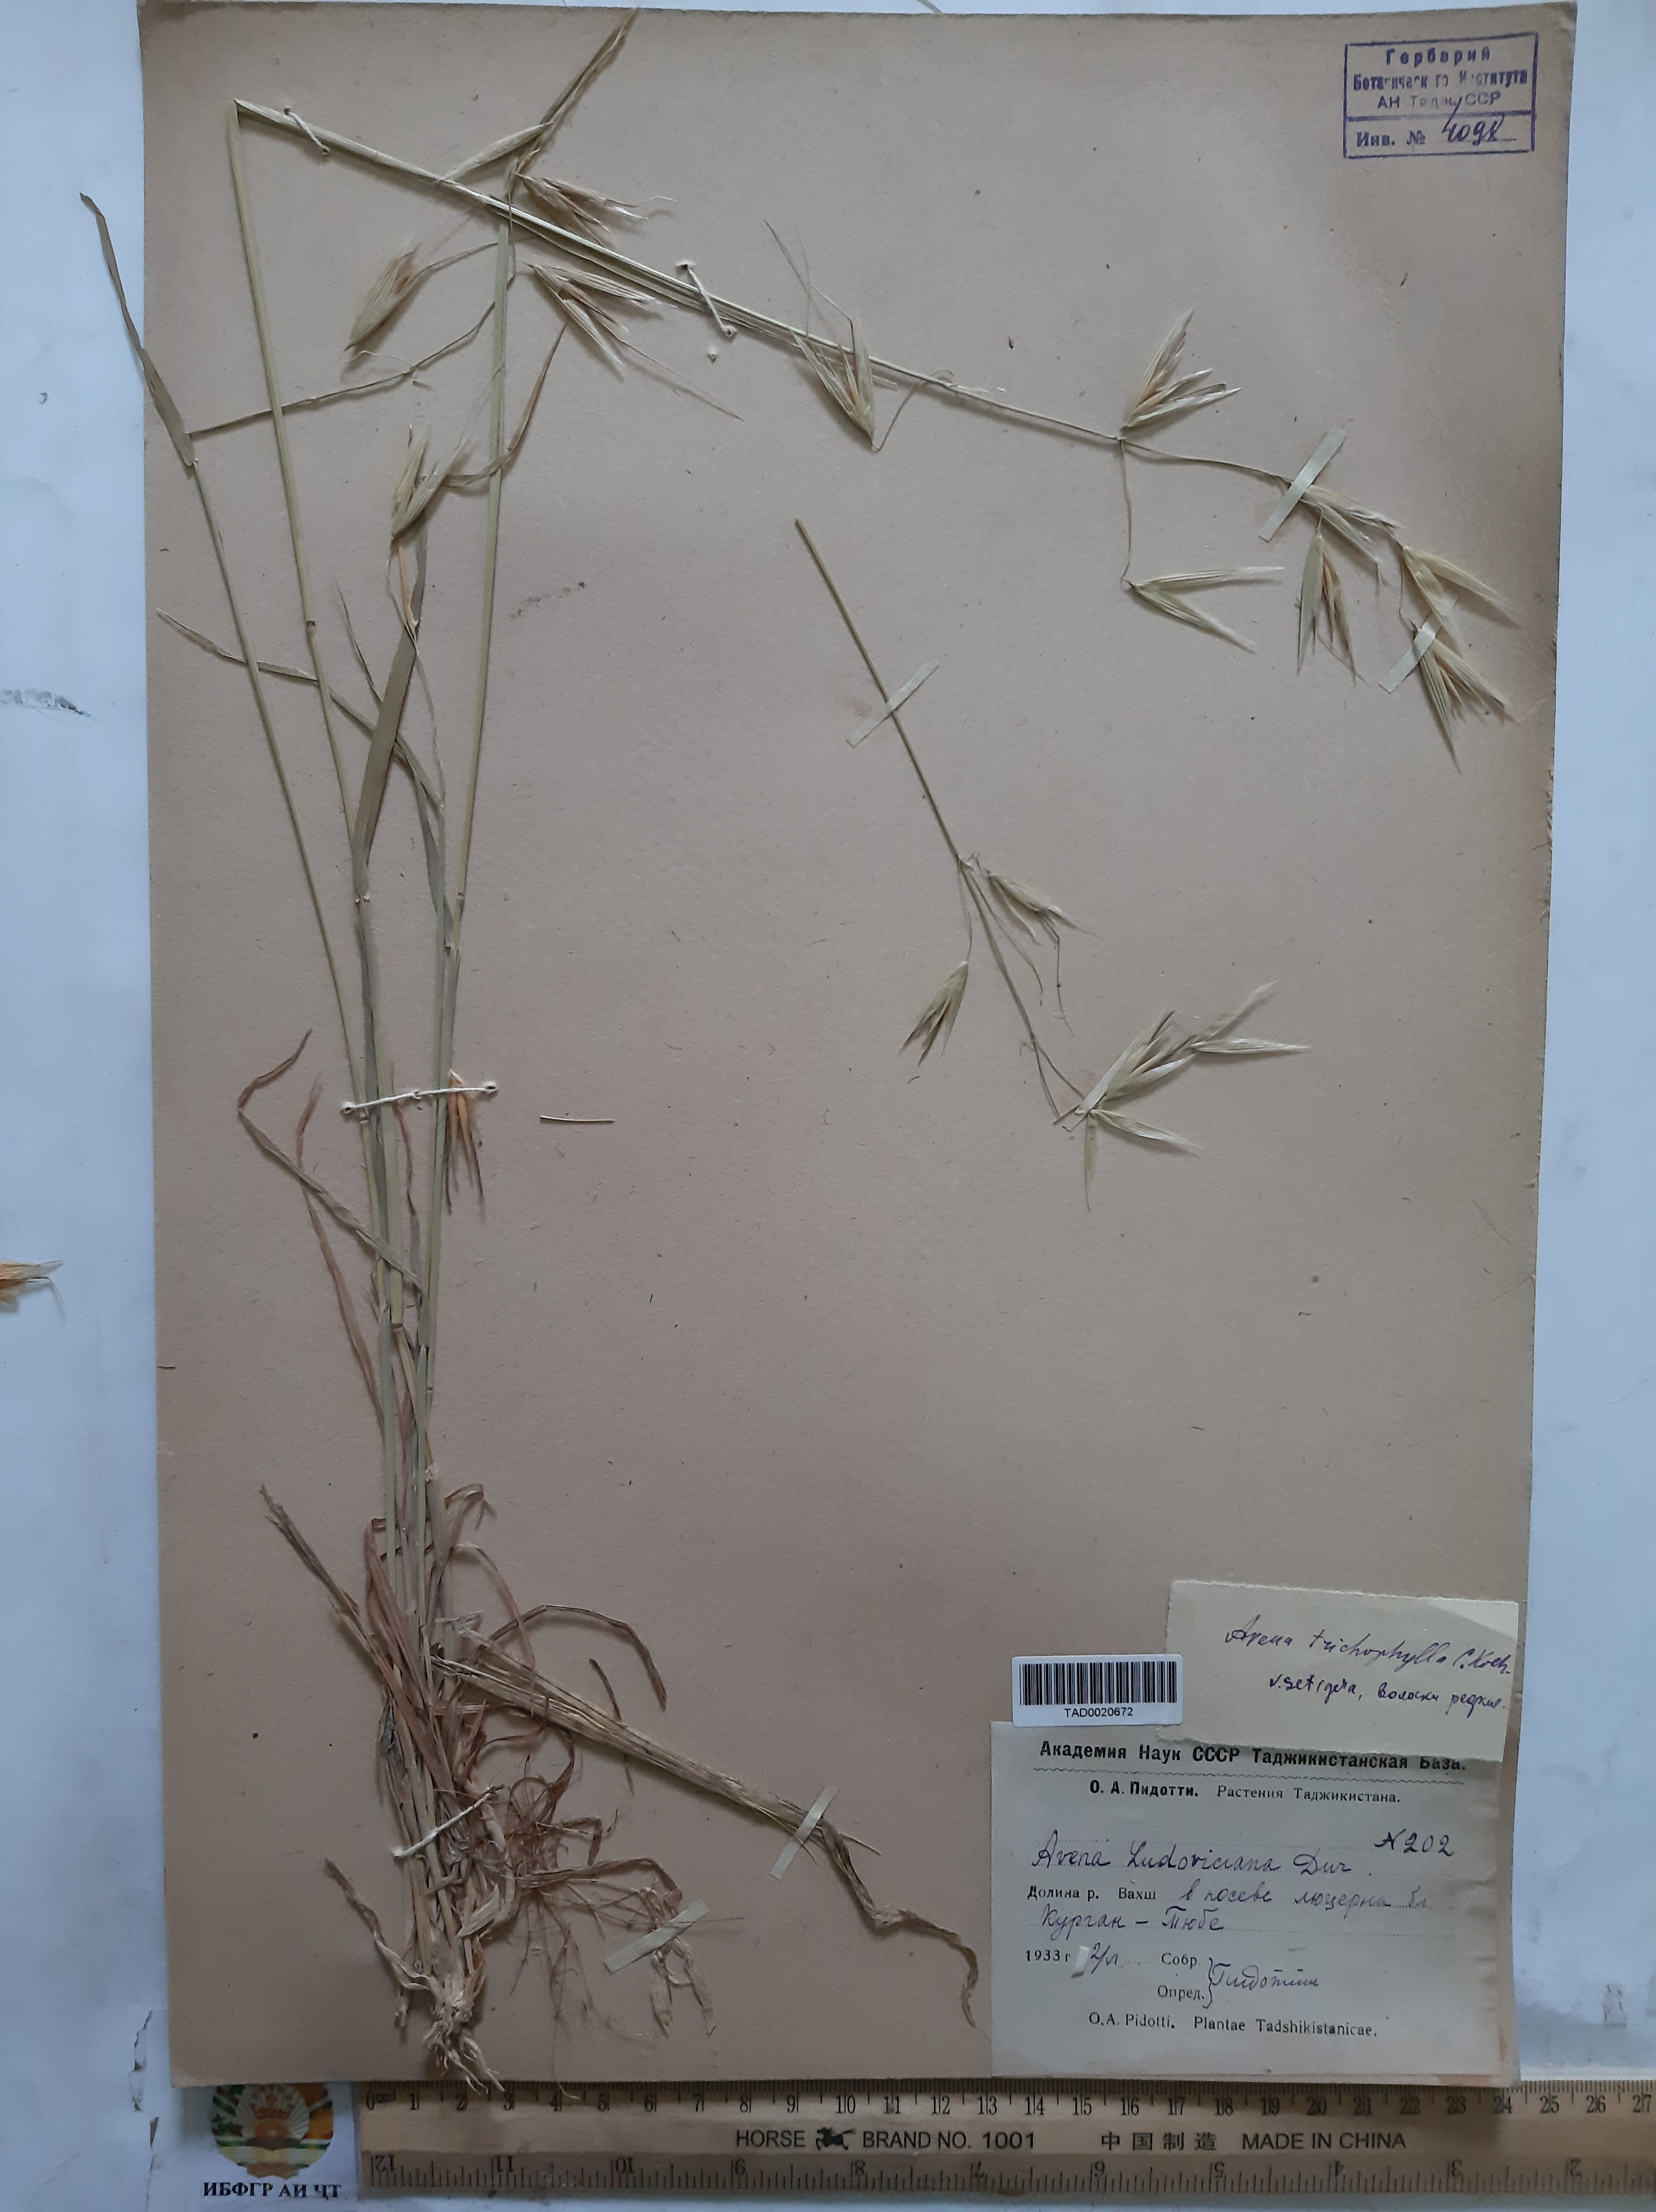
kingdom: Plantae
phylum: Tracheophyta
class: Liliopsida
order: Poales
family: Poaceae
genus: Avena
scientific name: Avena sterilis
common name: Animated oat
